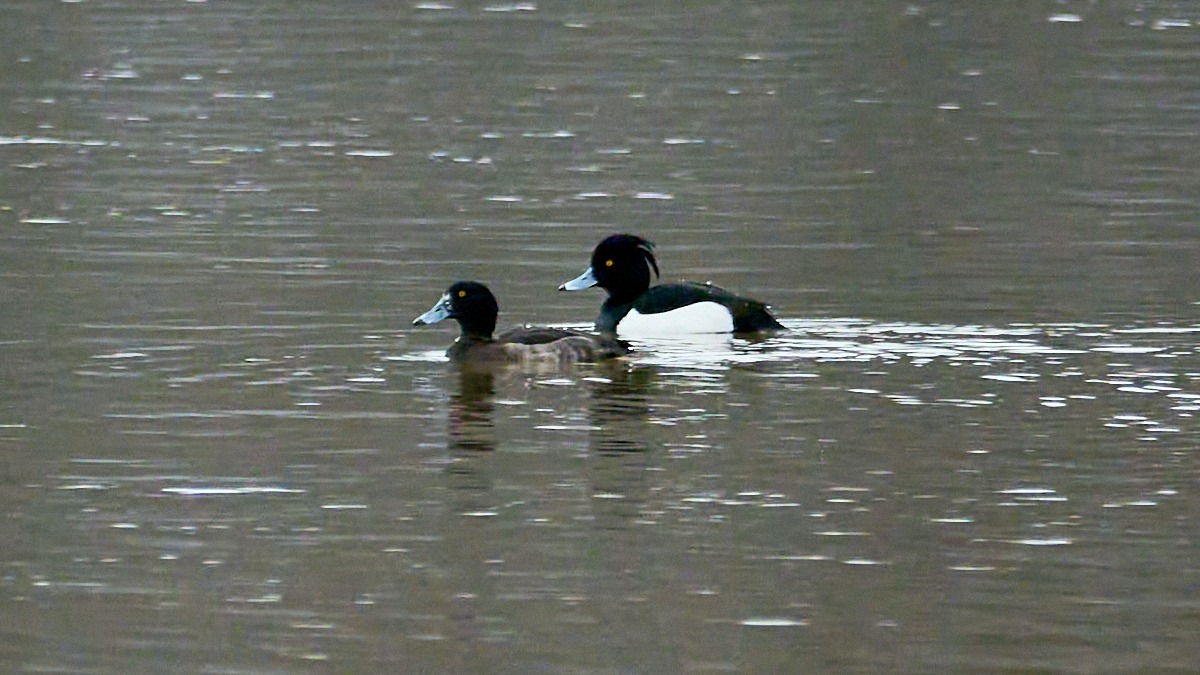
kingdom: Animalia
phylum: Chordata
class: Aves
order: Anseriformes
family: Anatidae
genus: Aythya
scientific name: Aythya fuligula
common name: Troldand
